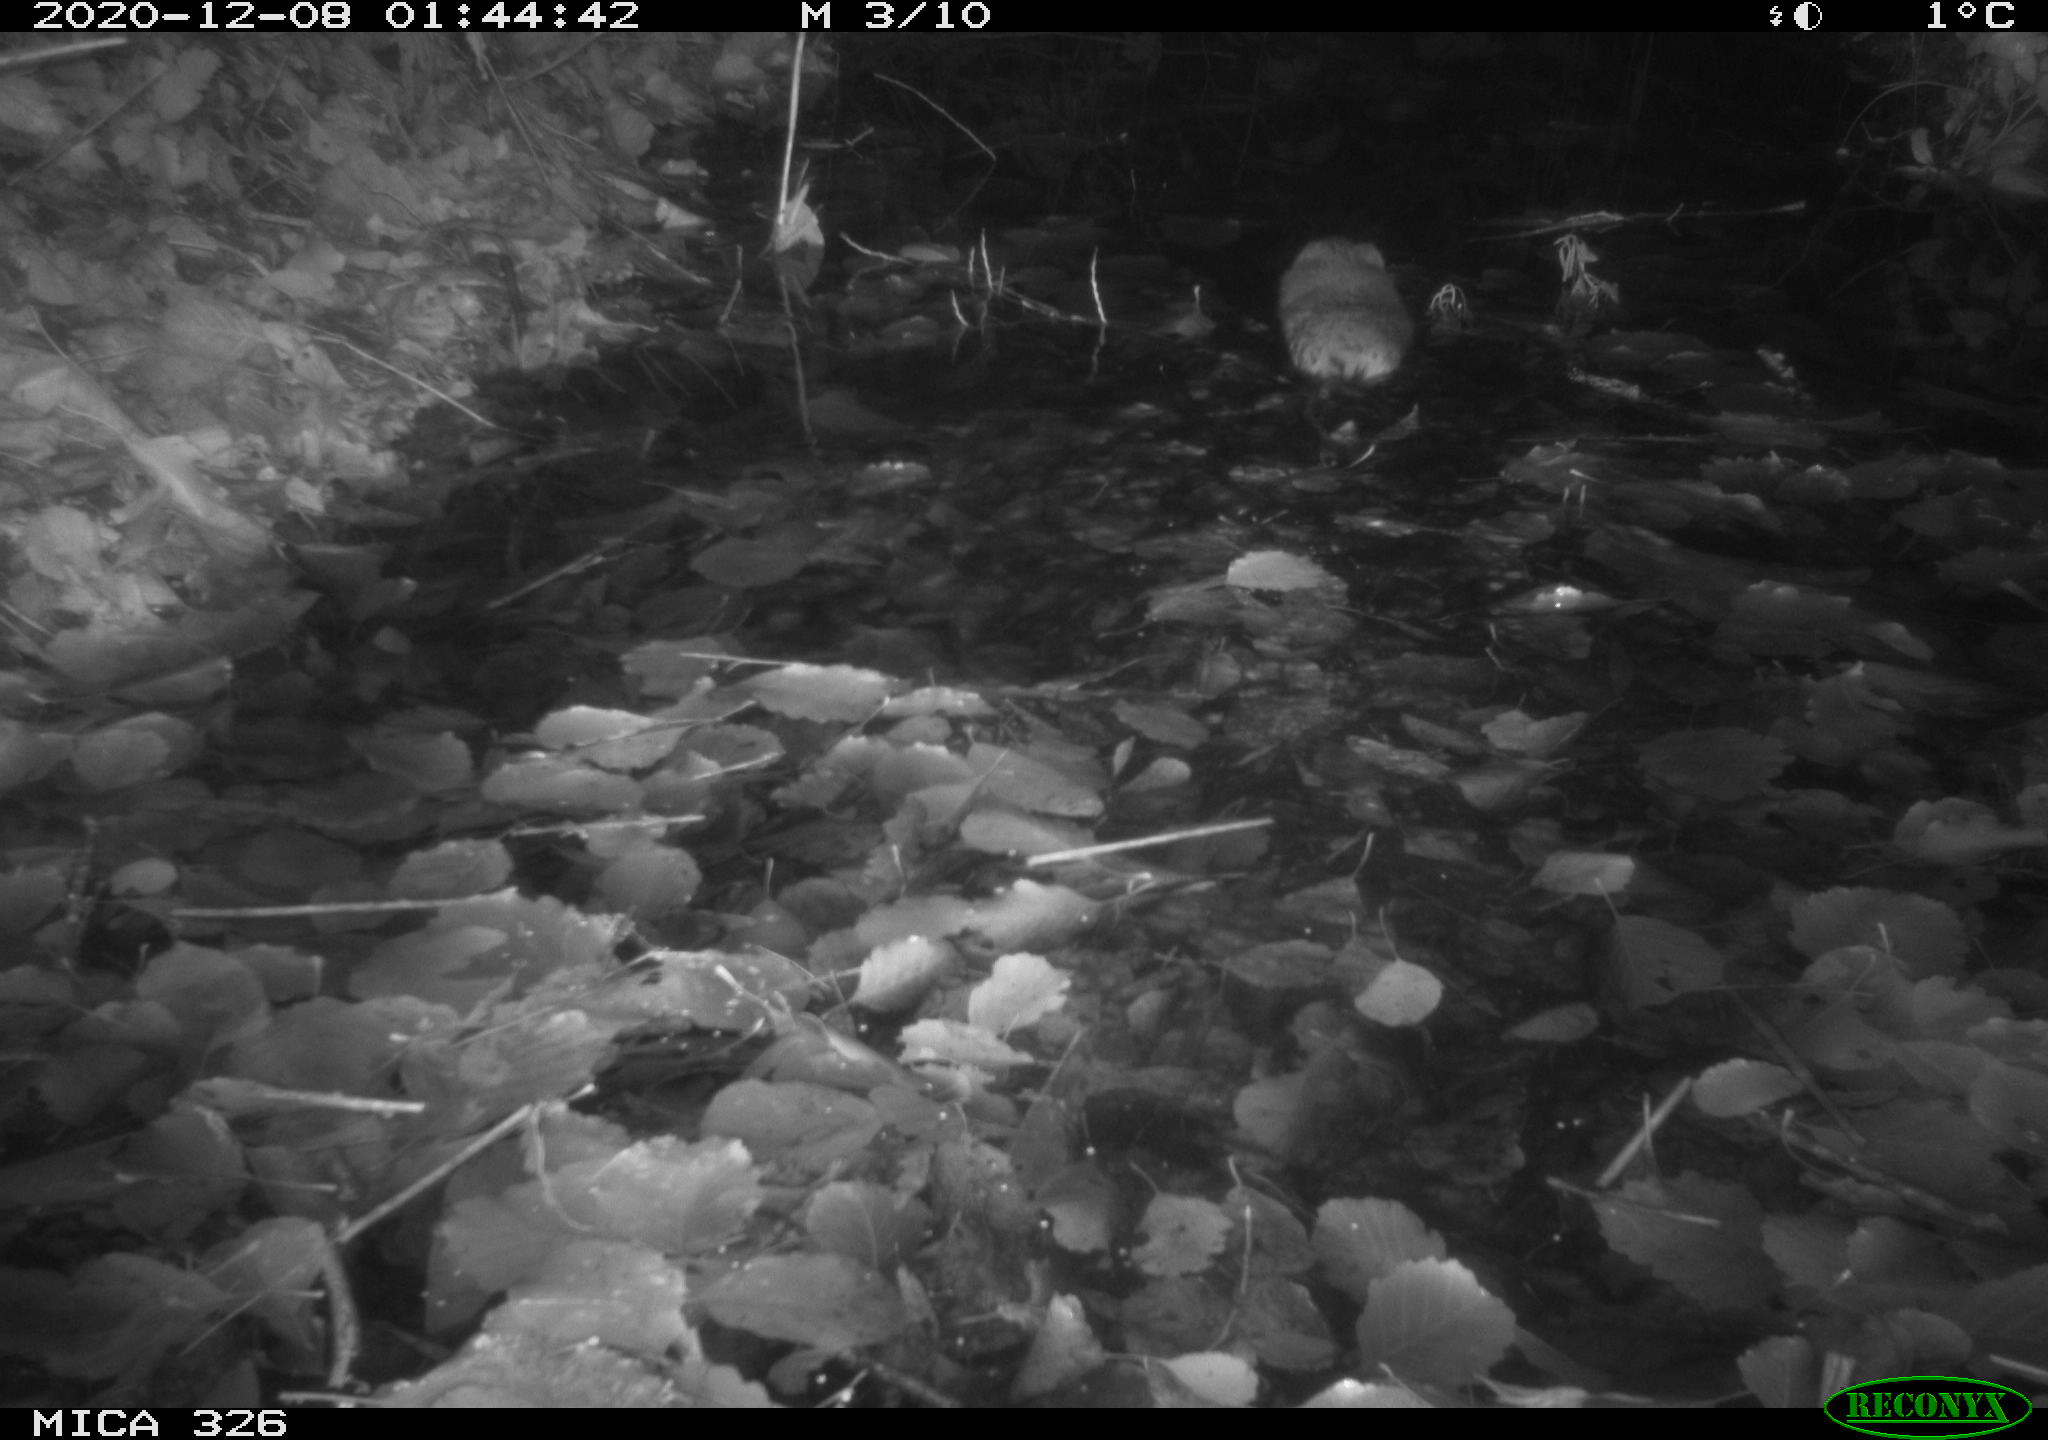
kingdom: Animalia
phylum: Chordata
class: Mammalia
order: Rodentia
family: Cricetidae
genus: Ondatra
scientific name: Ondatra zibethicus
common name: Muskrat
